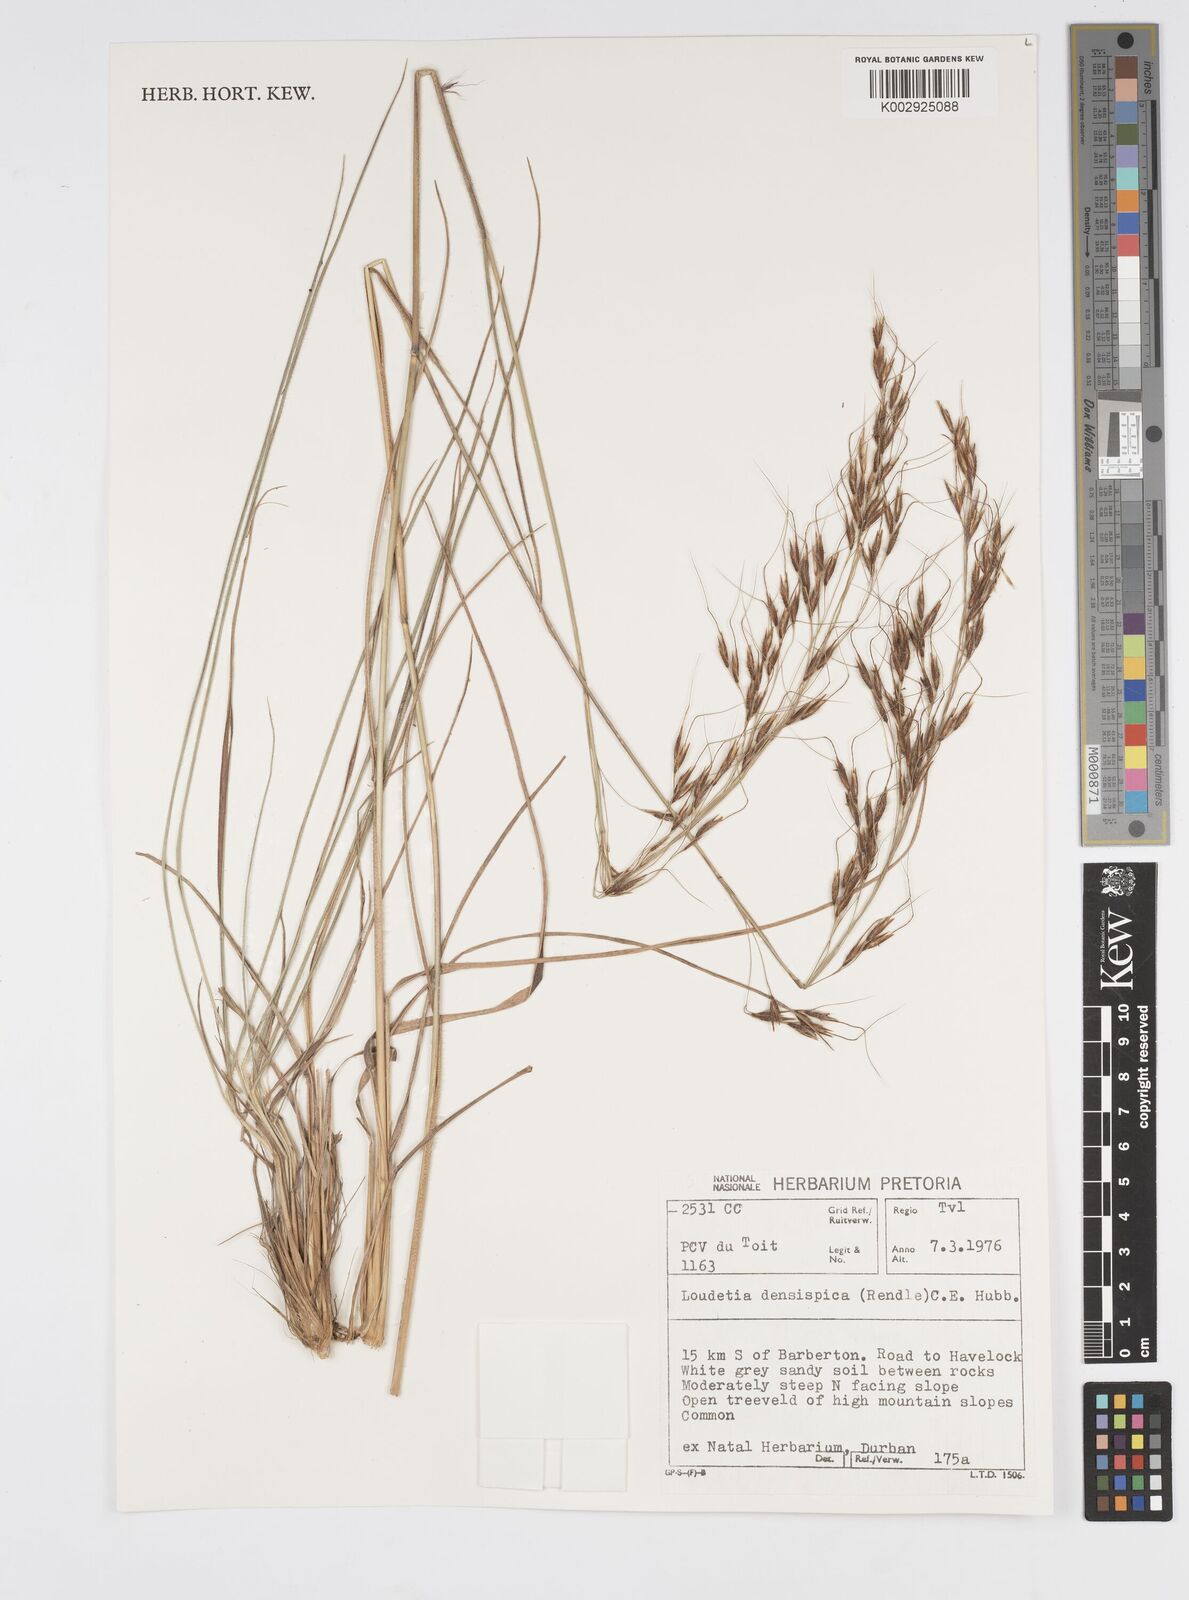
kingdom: Plantae
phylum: Tracheophyta
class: Liliopsida
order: Poales
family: Poaceae
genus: Loudetia
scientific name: Loudetia
